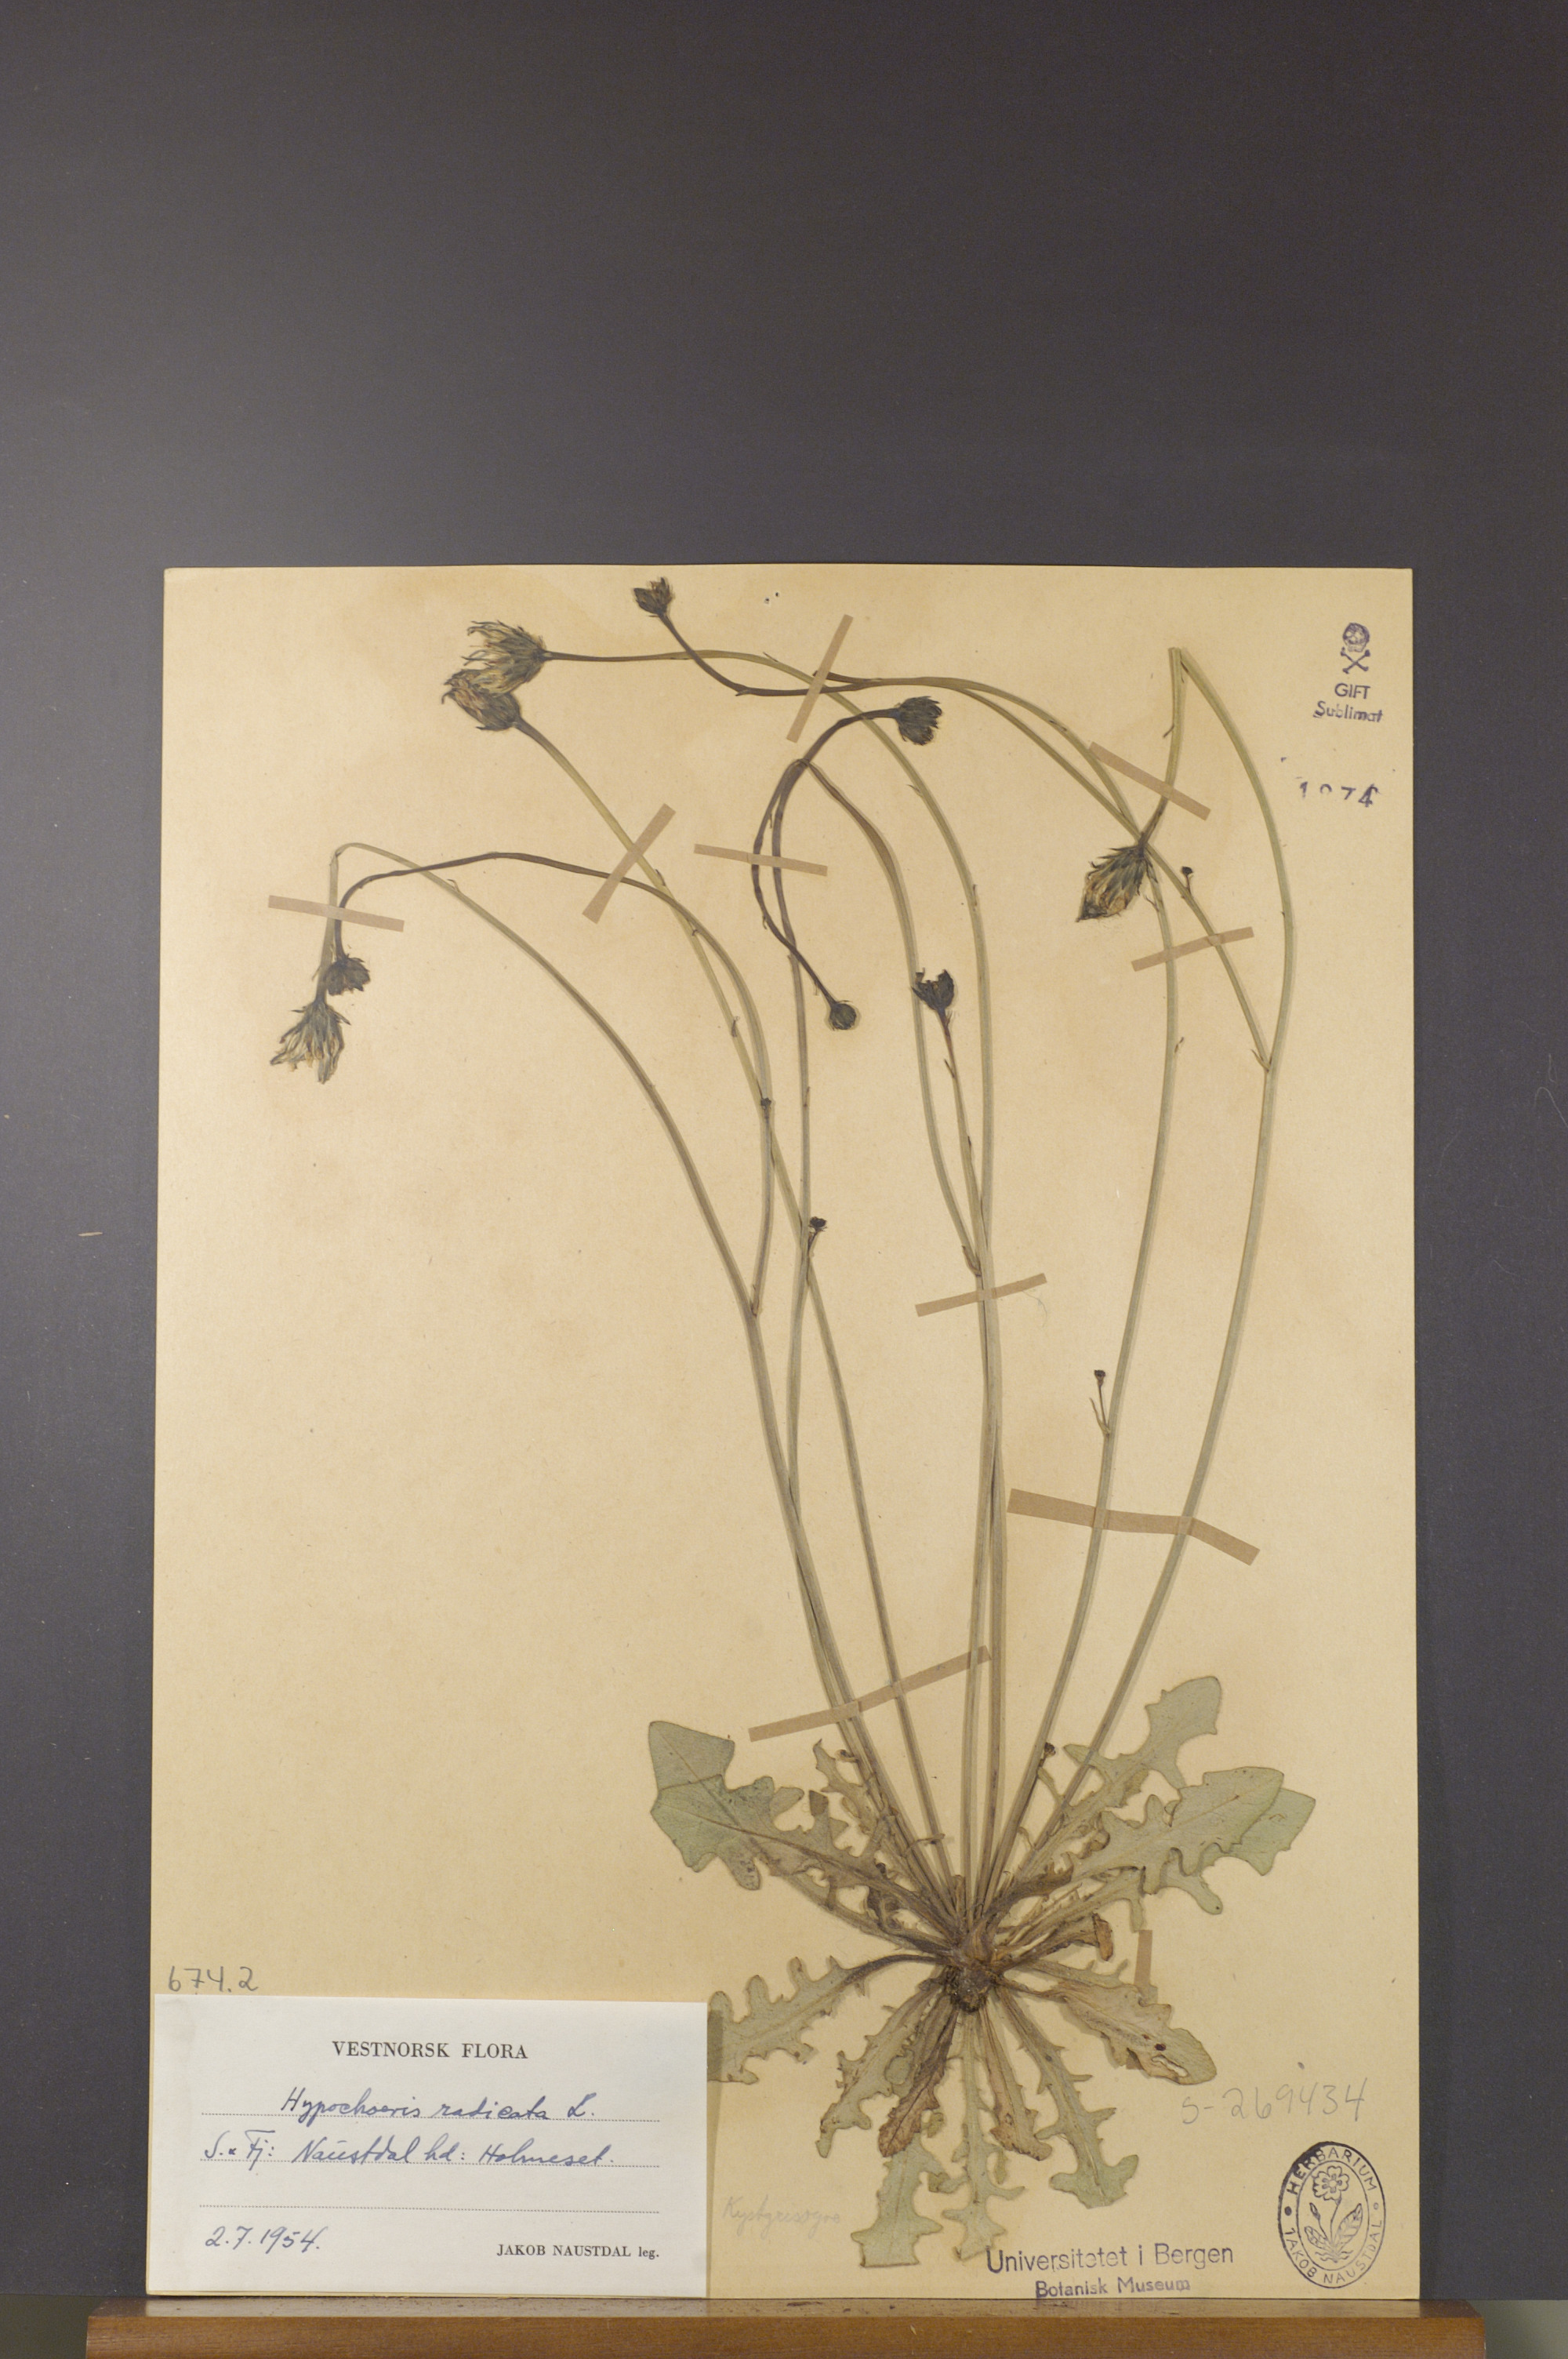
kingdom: Plantae
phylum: Tracheophyta
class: Magnoliopsida
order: Asterales
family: Asteraceae
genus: Hypochaeris
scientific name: Hypochaeris radicata
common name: Flatweed
